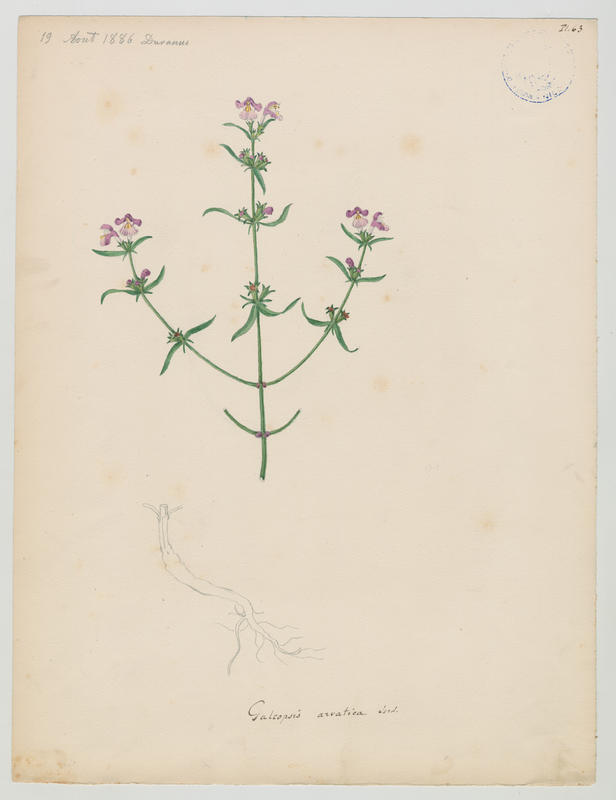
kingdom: Plantae
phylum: Tracheophyta
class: Magnoliopsida
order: Lamiales
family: Lamiaceae
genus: Galeopsis
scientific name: Galeopsis ladanum
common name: Broad-leaved hemp-nettle
